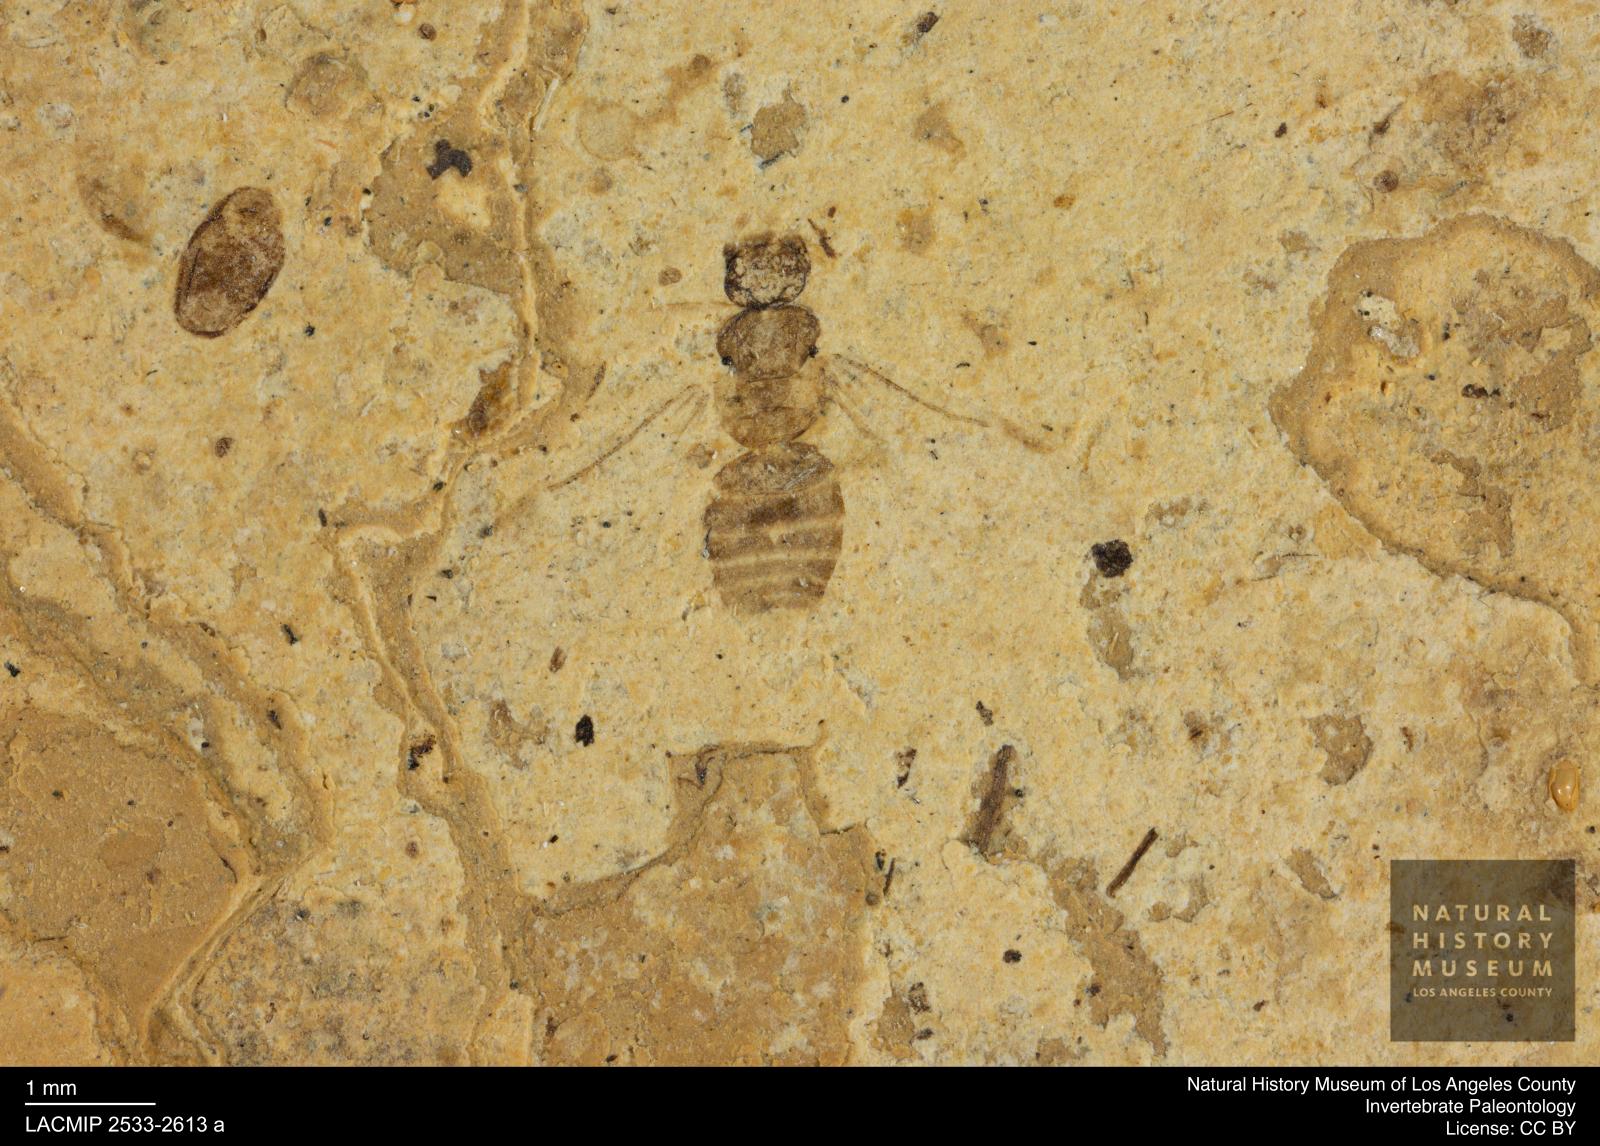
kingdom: Animalia
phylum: Arthropoda
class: Insecta
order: Hymenoptera
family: Formicidae
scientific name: Formicidae
